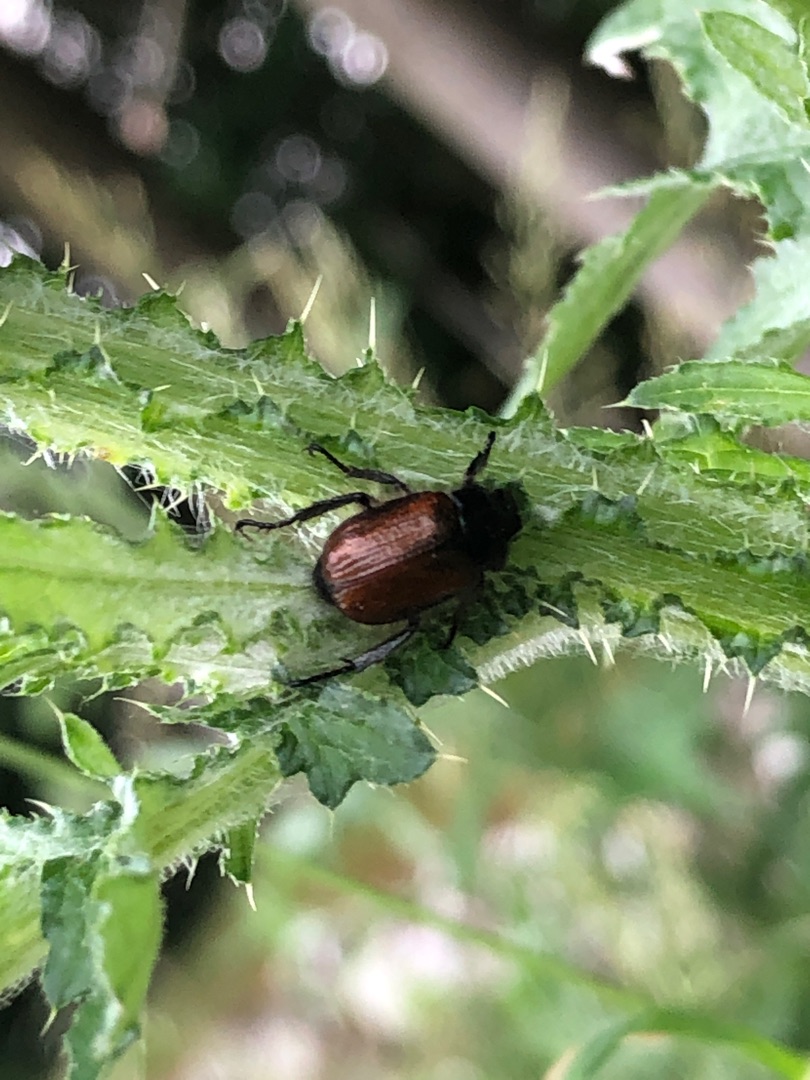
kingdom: Animalia
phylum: Arthropoda
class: Insecta
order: Coleoptera
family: Scarabaeidae
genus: Phyllopertha
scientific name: Phyllopertha horticola
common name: Gåsebille
